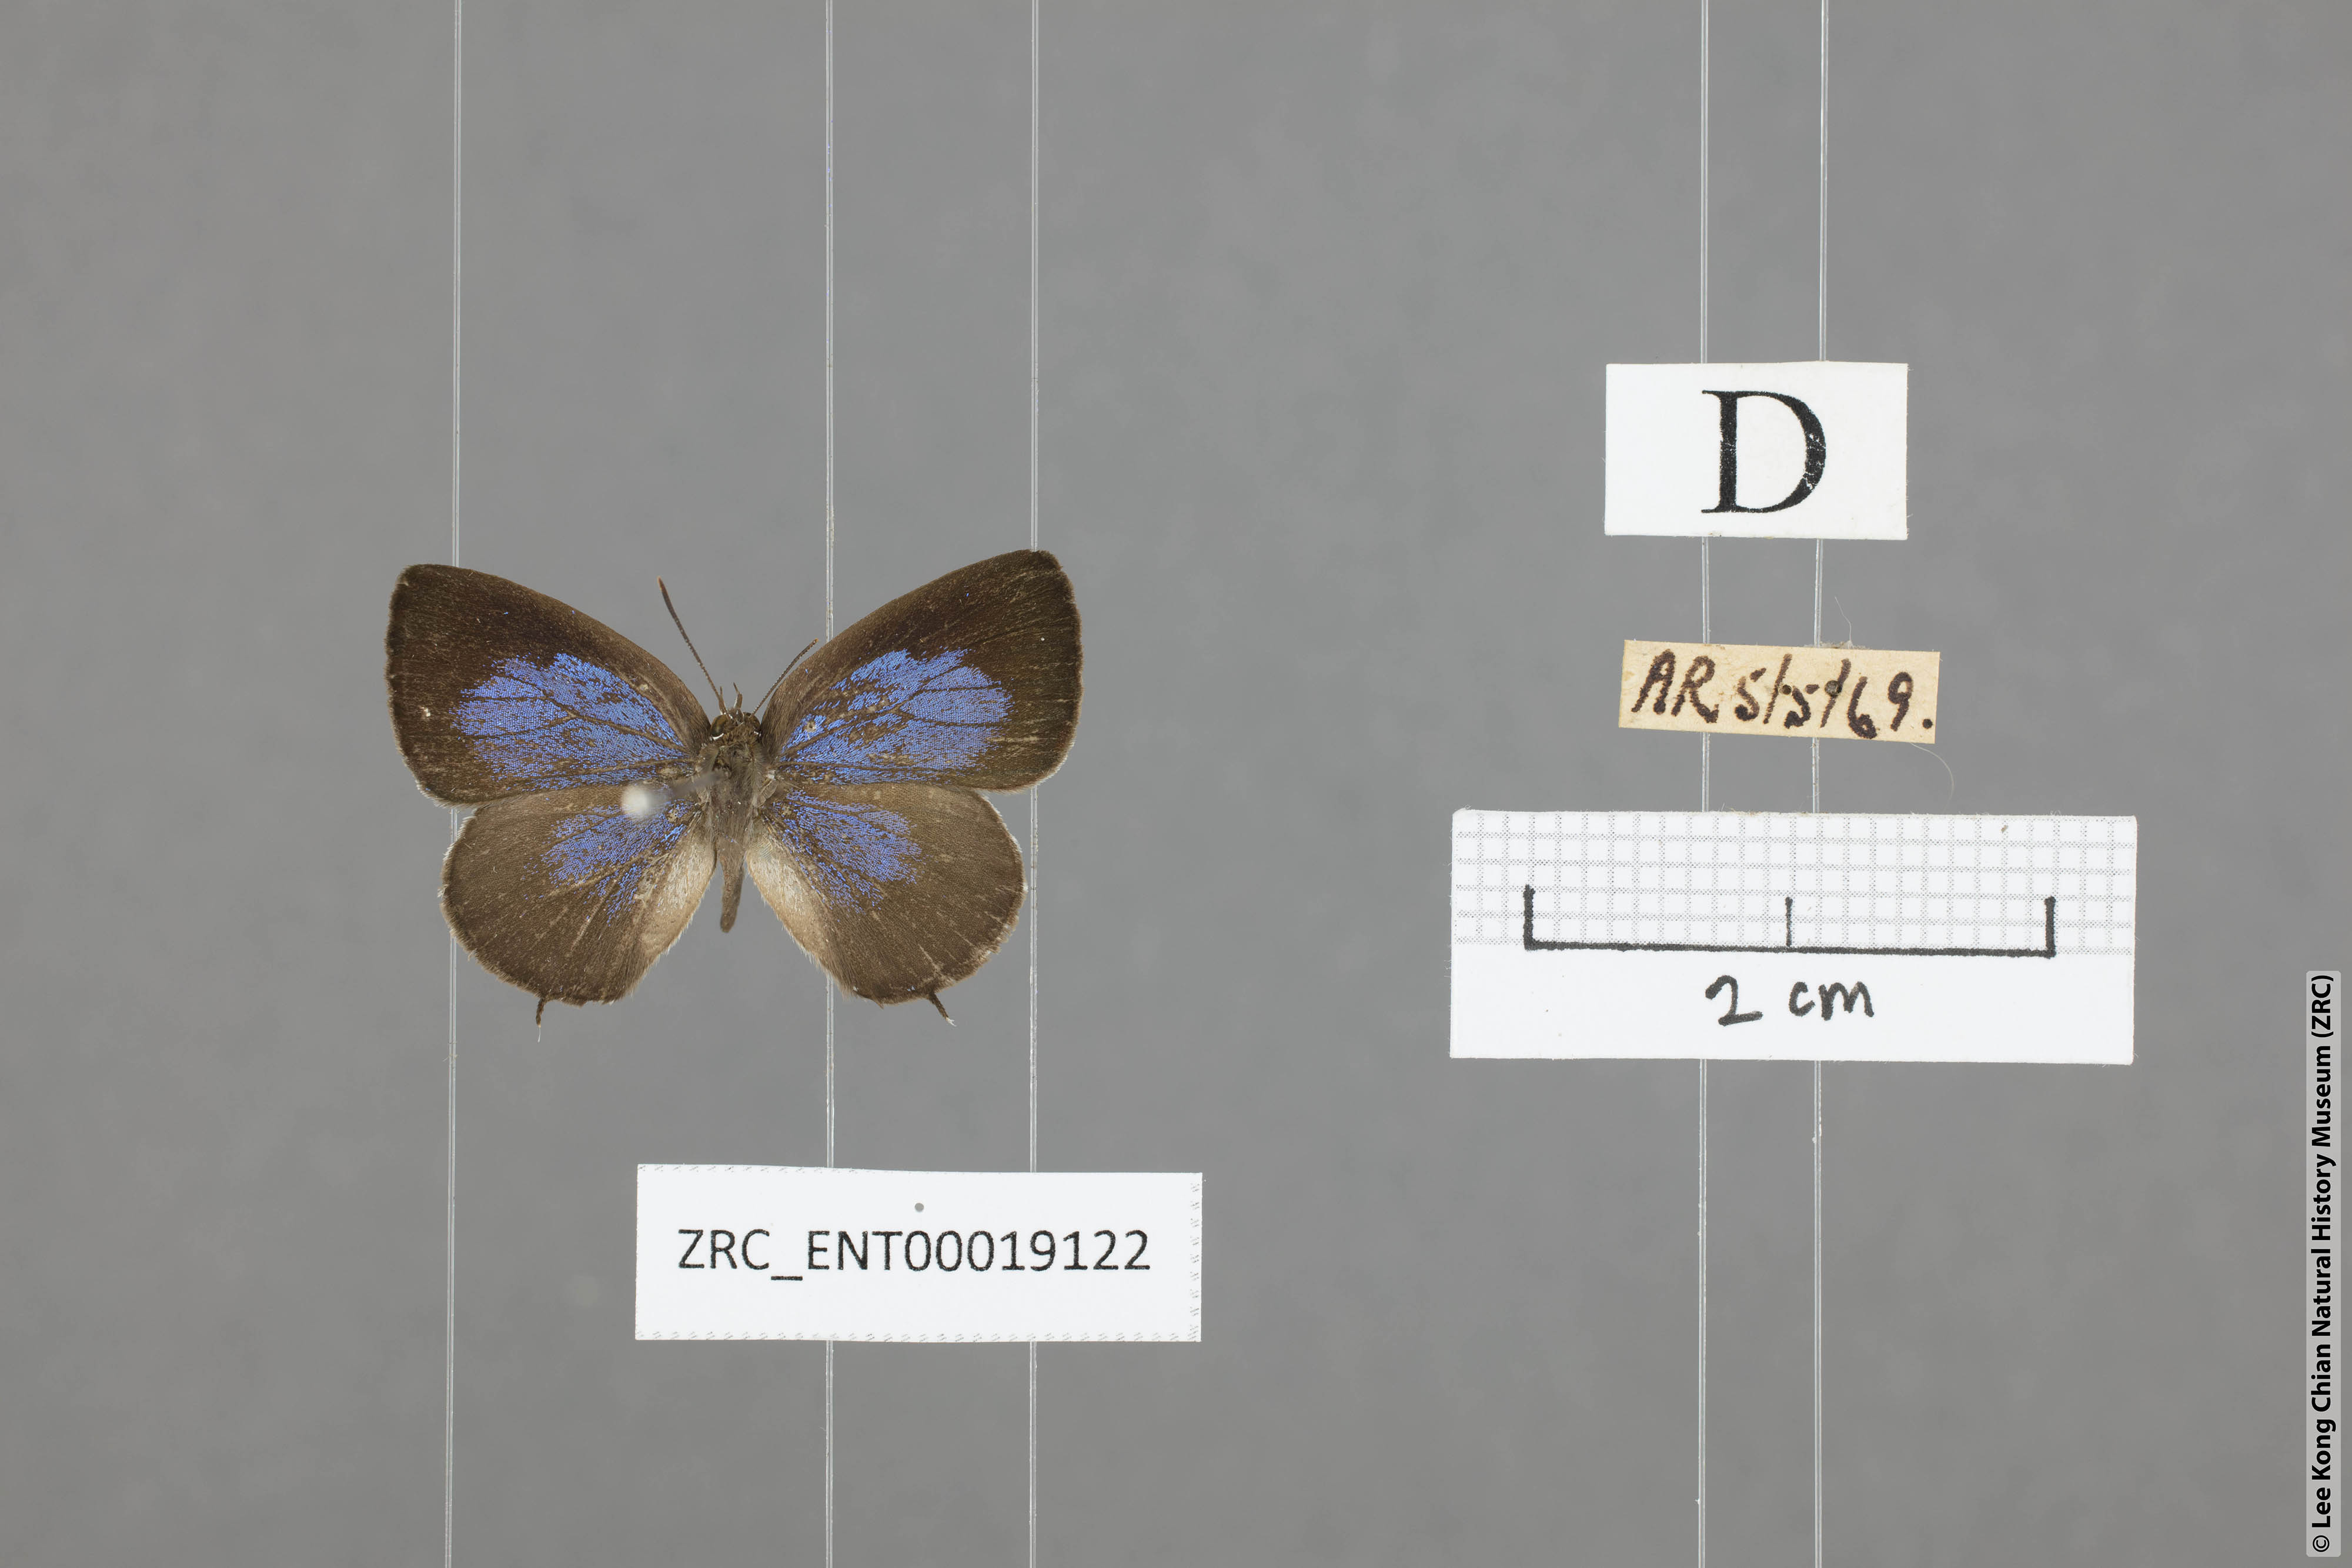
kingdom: Animalia
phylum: Arthropoda
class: Insecta
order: Lepidoptera
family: Lycaenidae
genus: Arhopala
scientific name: Arhopala ammonides
